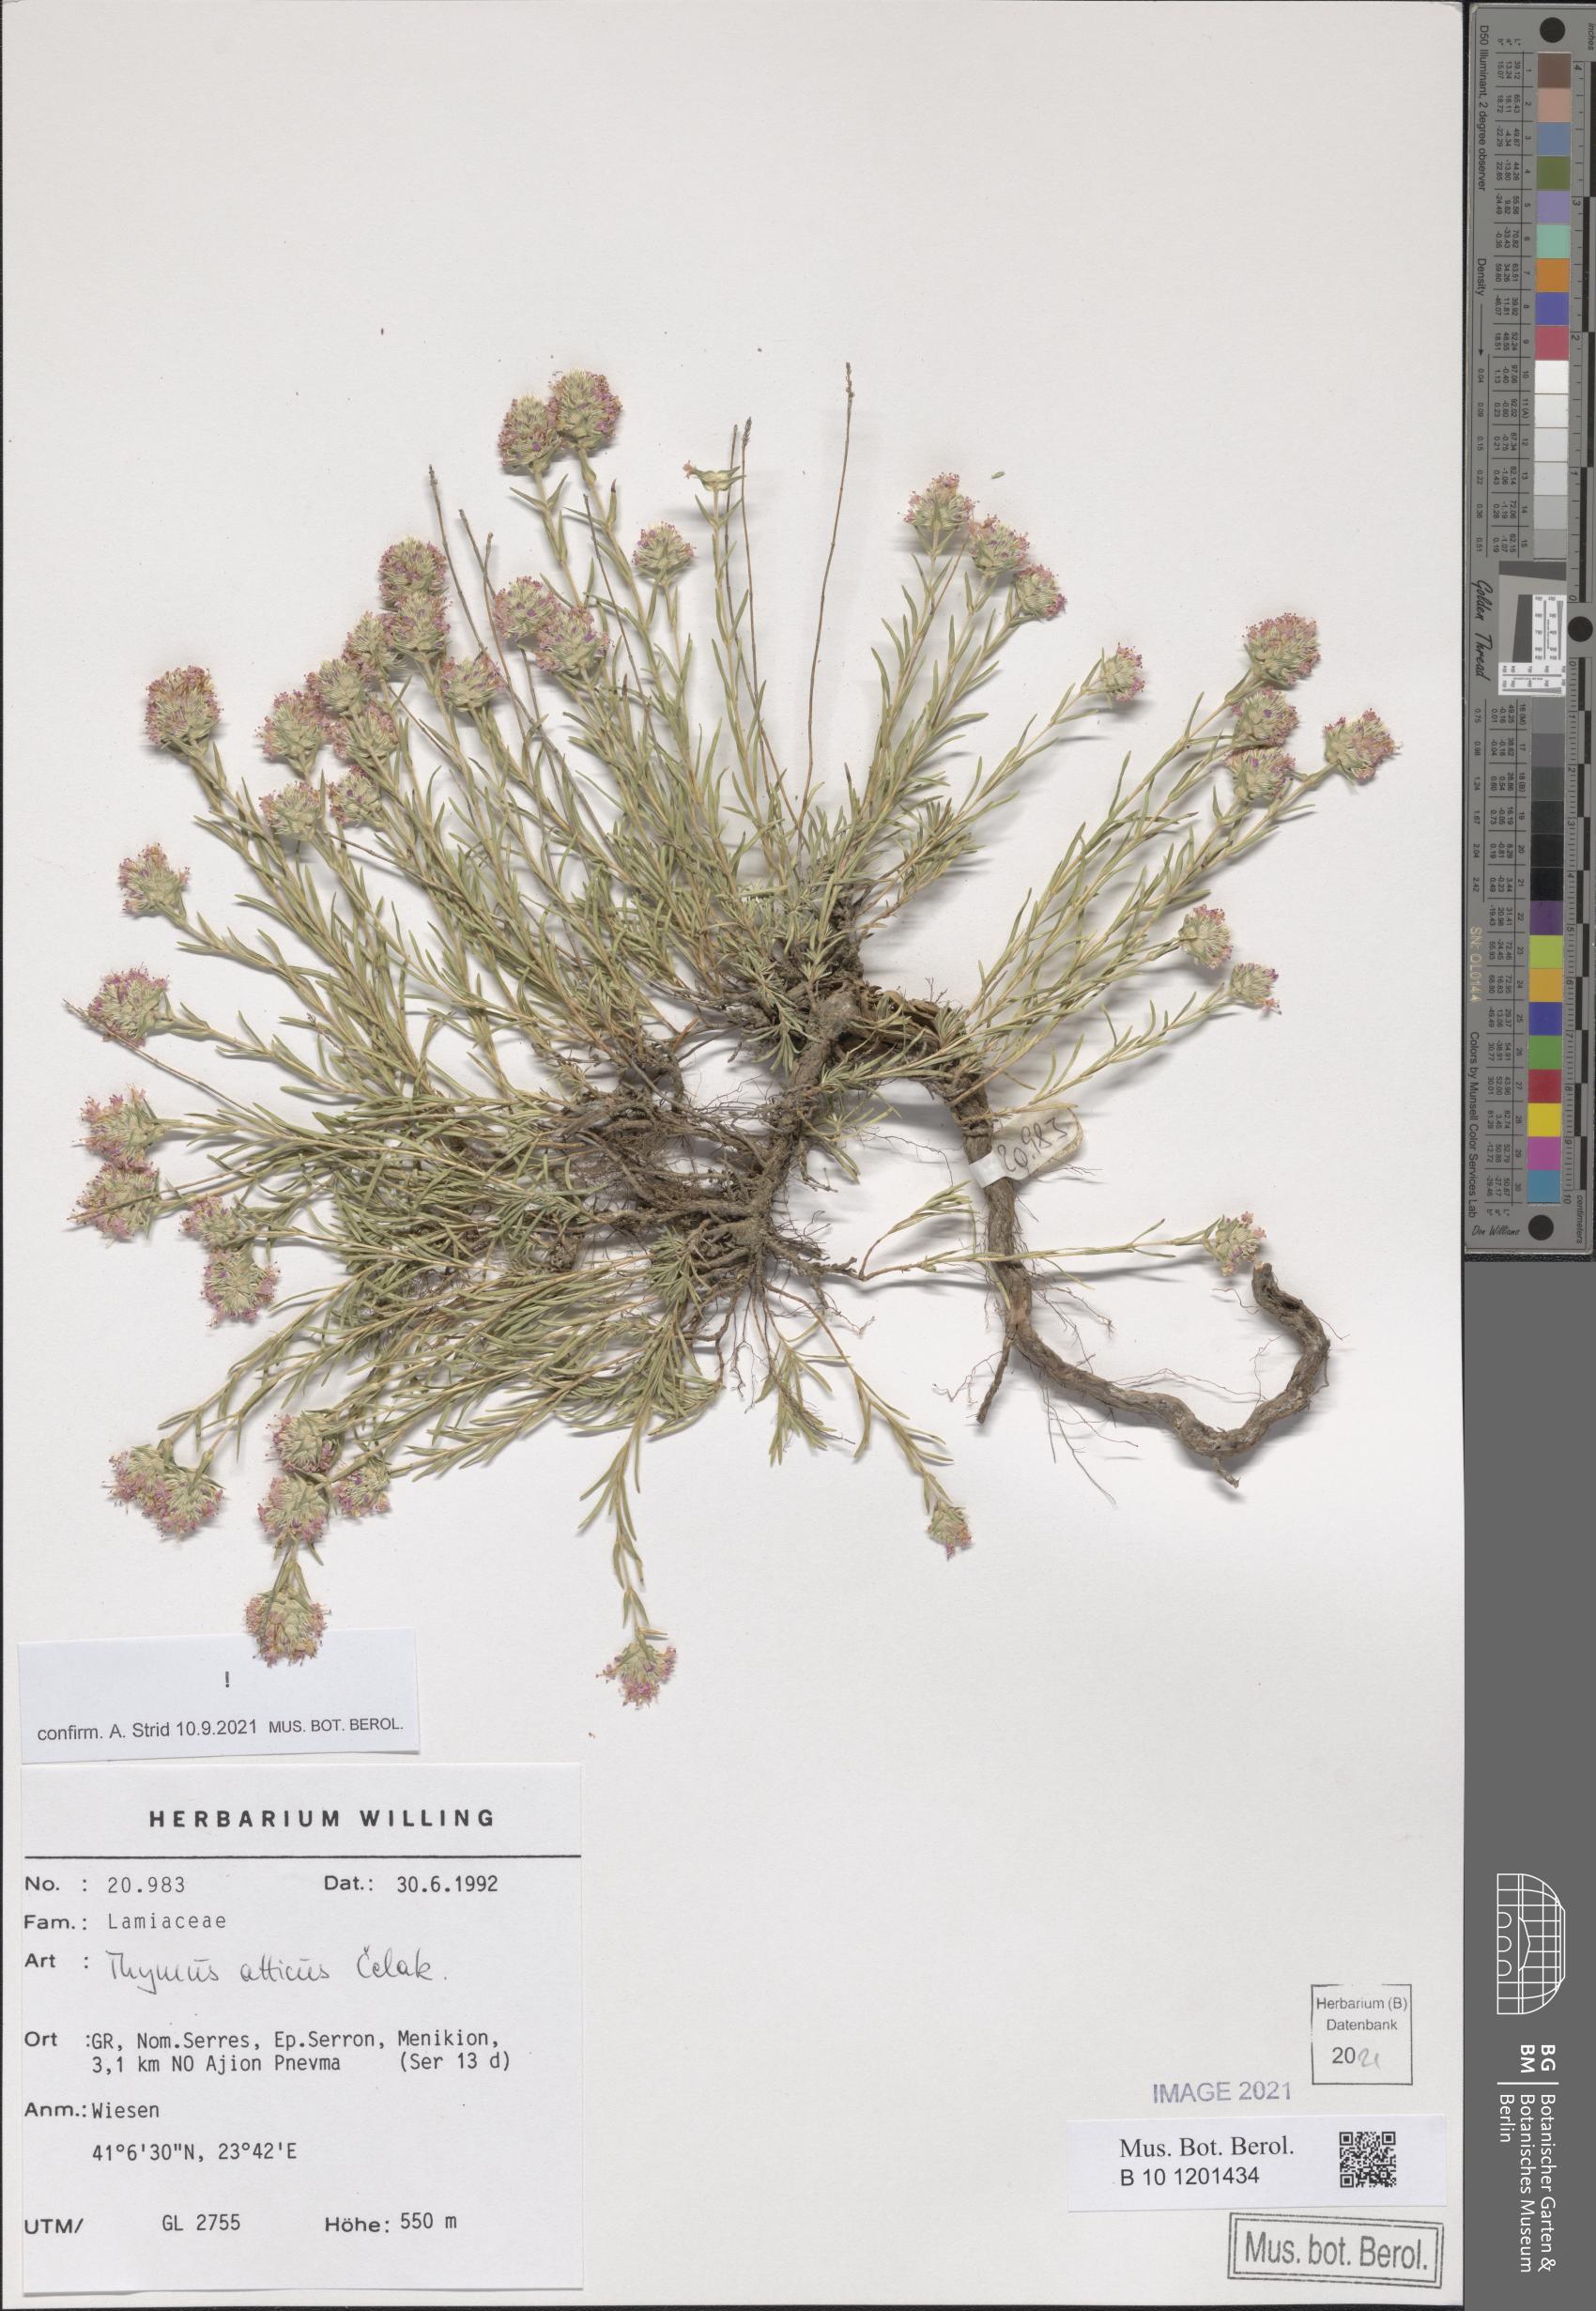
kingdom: Plantae
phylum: Tracheophyta
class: Magnoliopsida
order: Lamiales
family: Lamiaceae
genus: Thymus
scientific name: Thymus atticus
